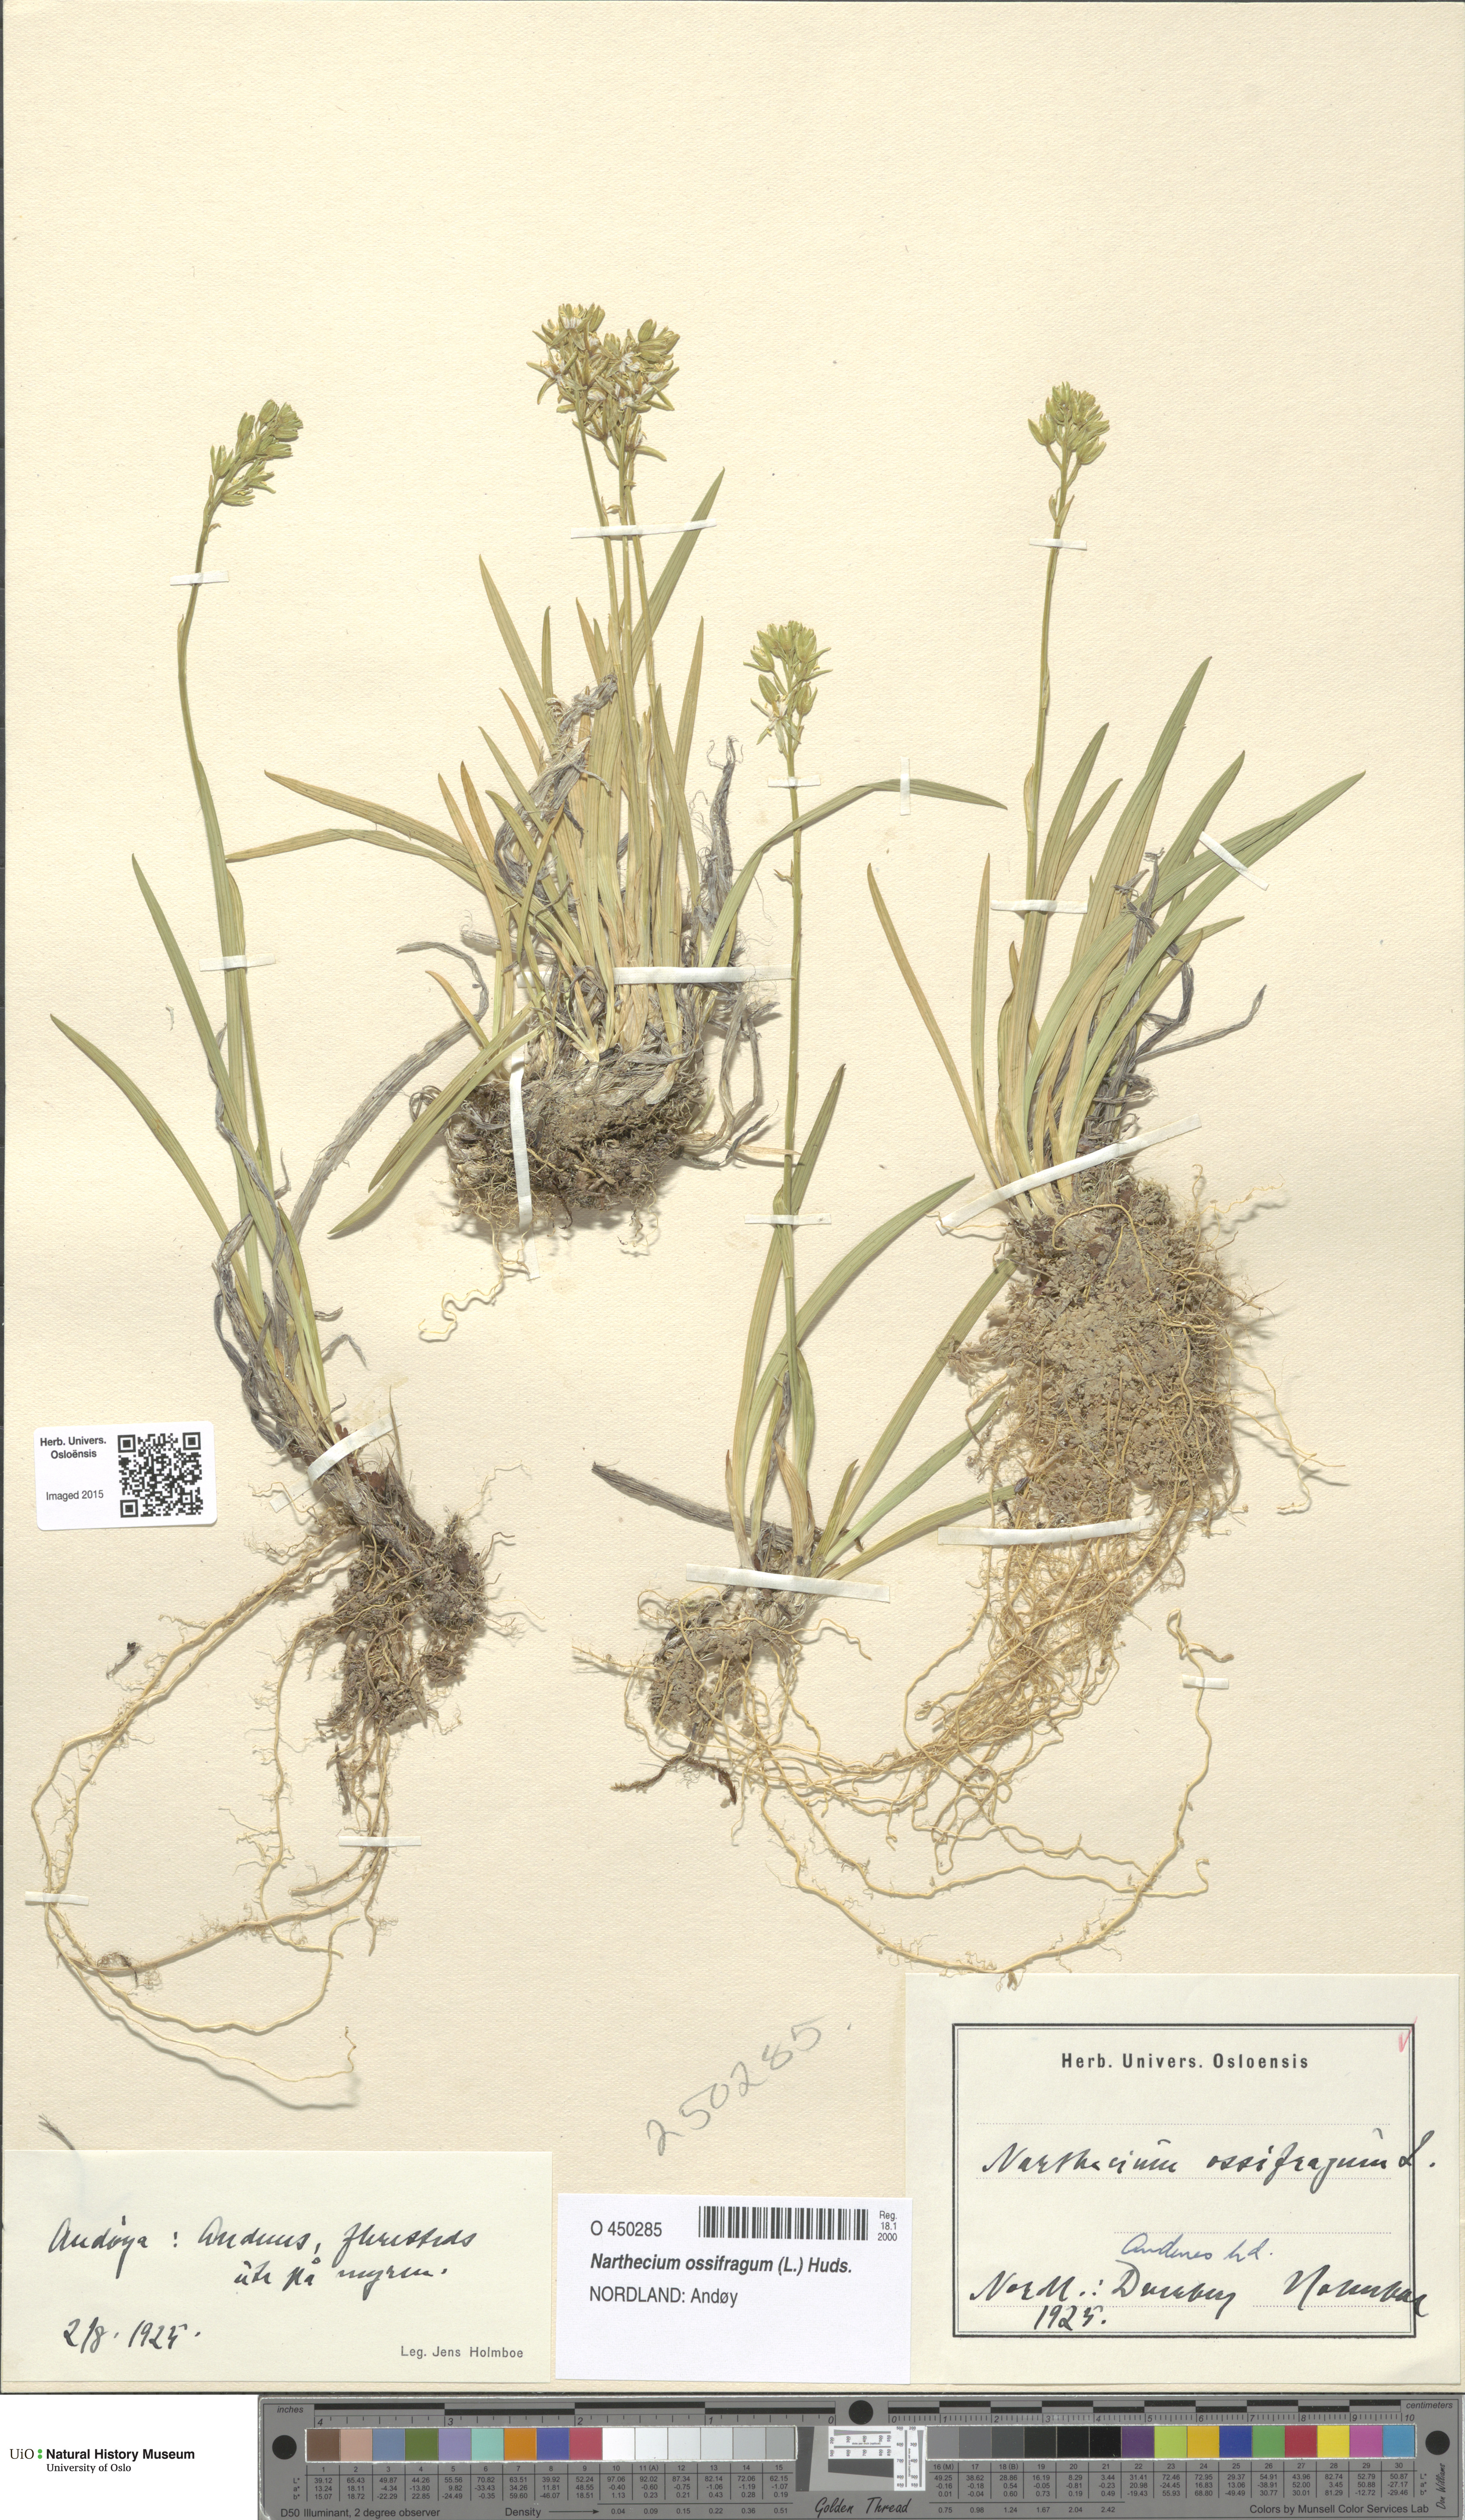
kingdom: Plantae
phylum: Tracheophyta
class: Liliopsida
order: Dioscoreales
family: Nartheciaceae
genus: Narthecium
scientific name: Narthecium ossifragum
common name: Bog asphodel
